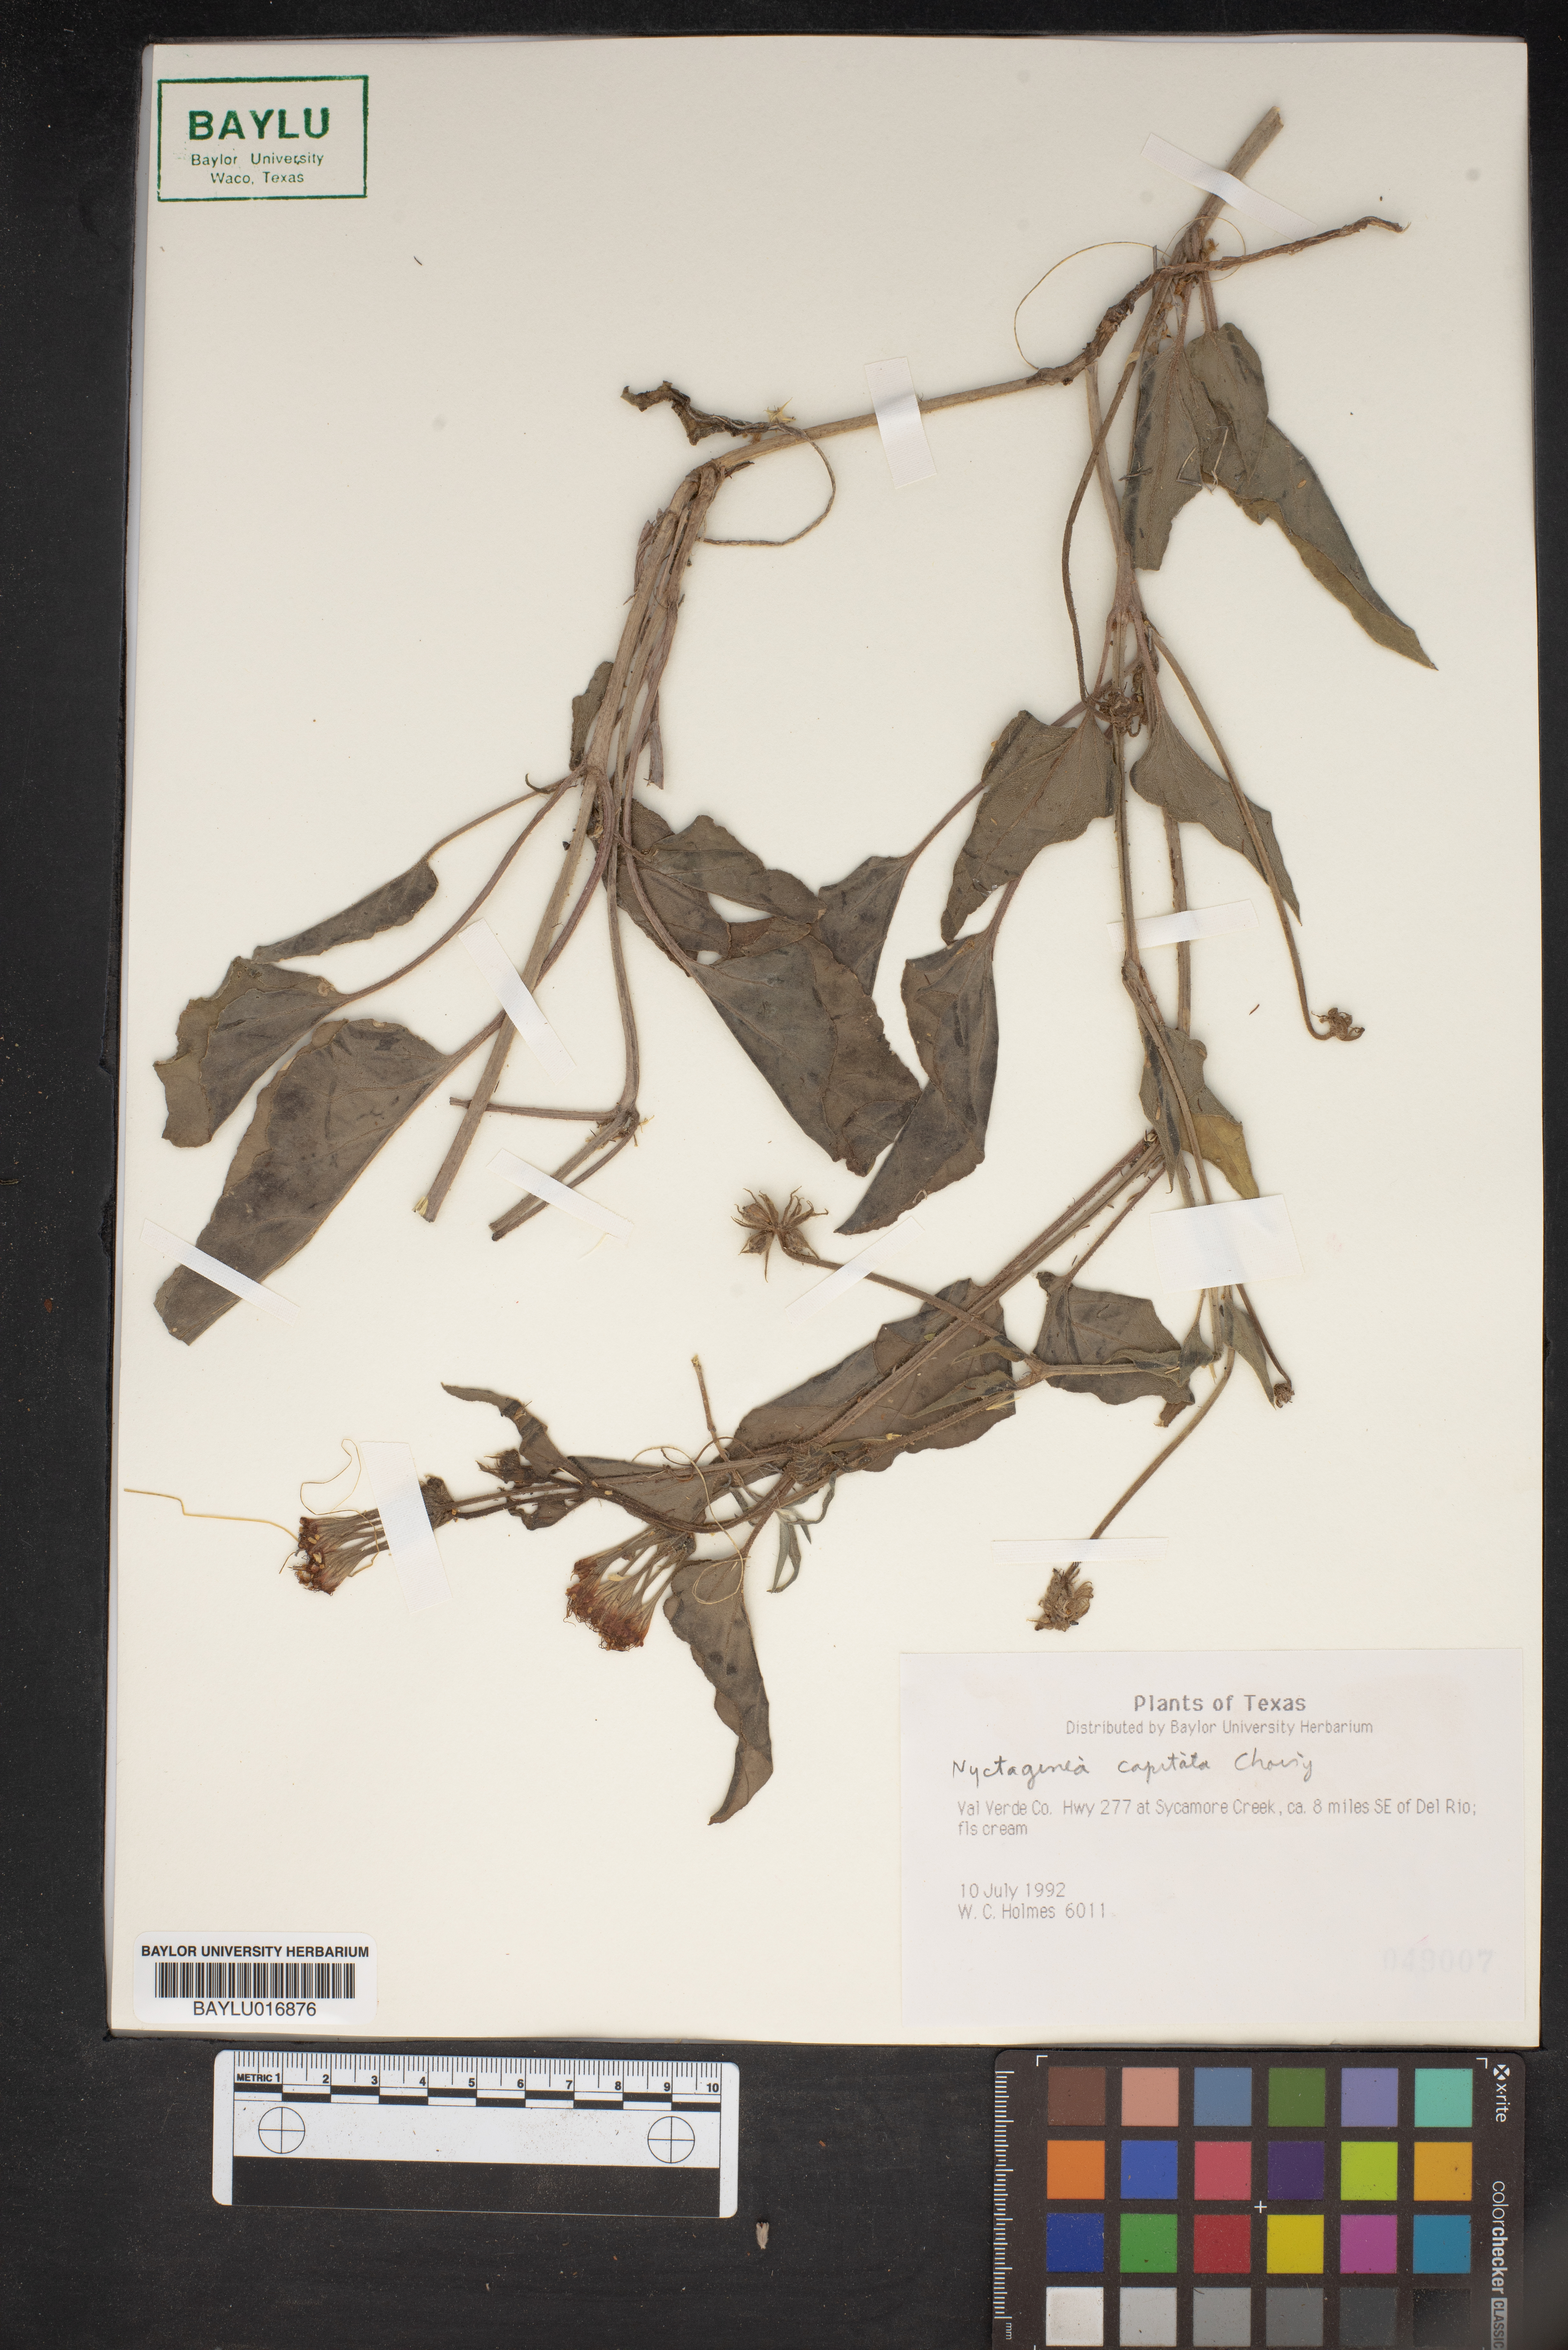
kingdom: Plantae
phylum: Tracheophyta
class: Magnoliopsida
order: Caryophyllales
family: Nyctaginaceae
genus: Nyctaginia
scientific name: Nyctaginia capitata
